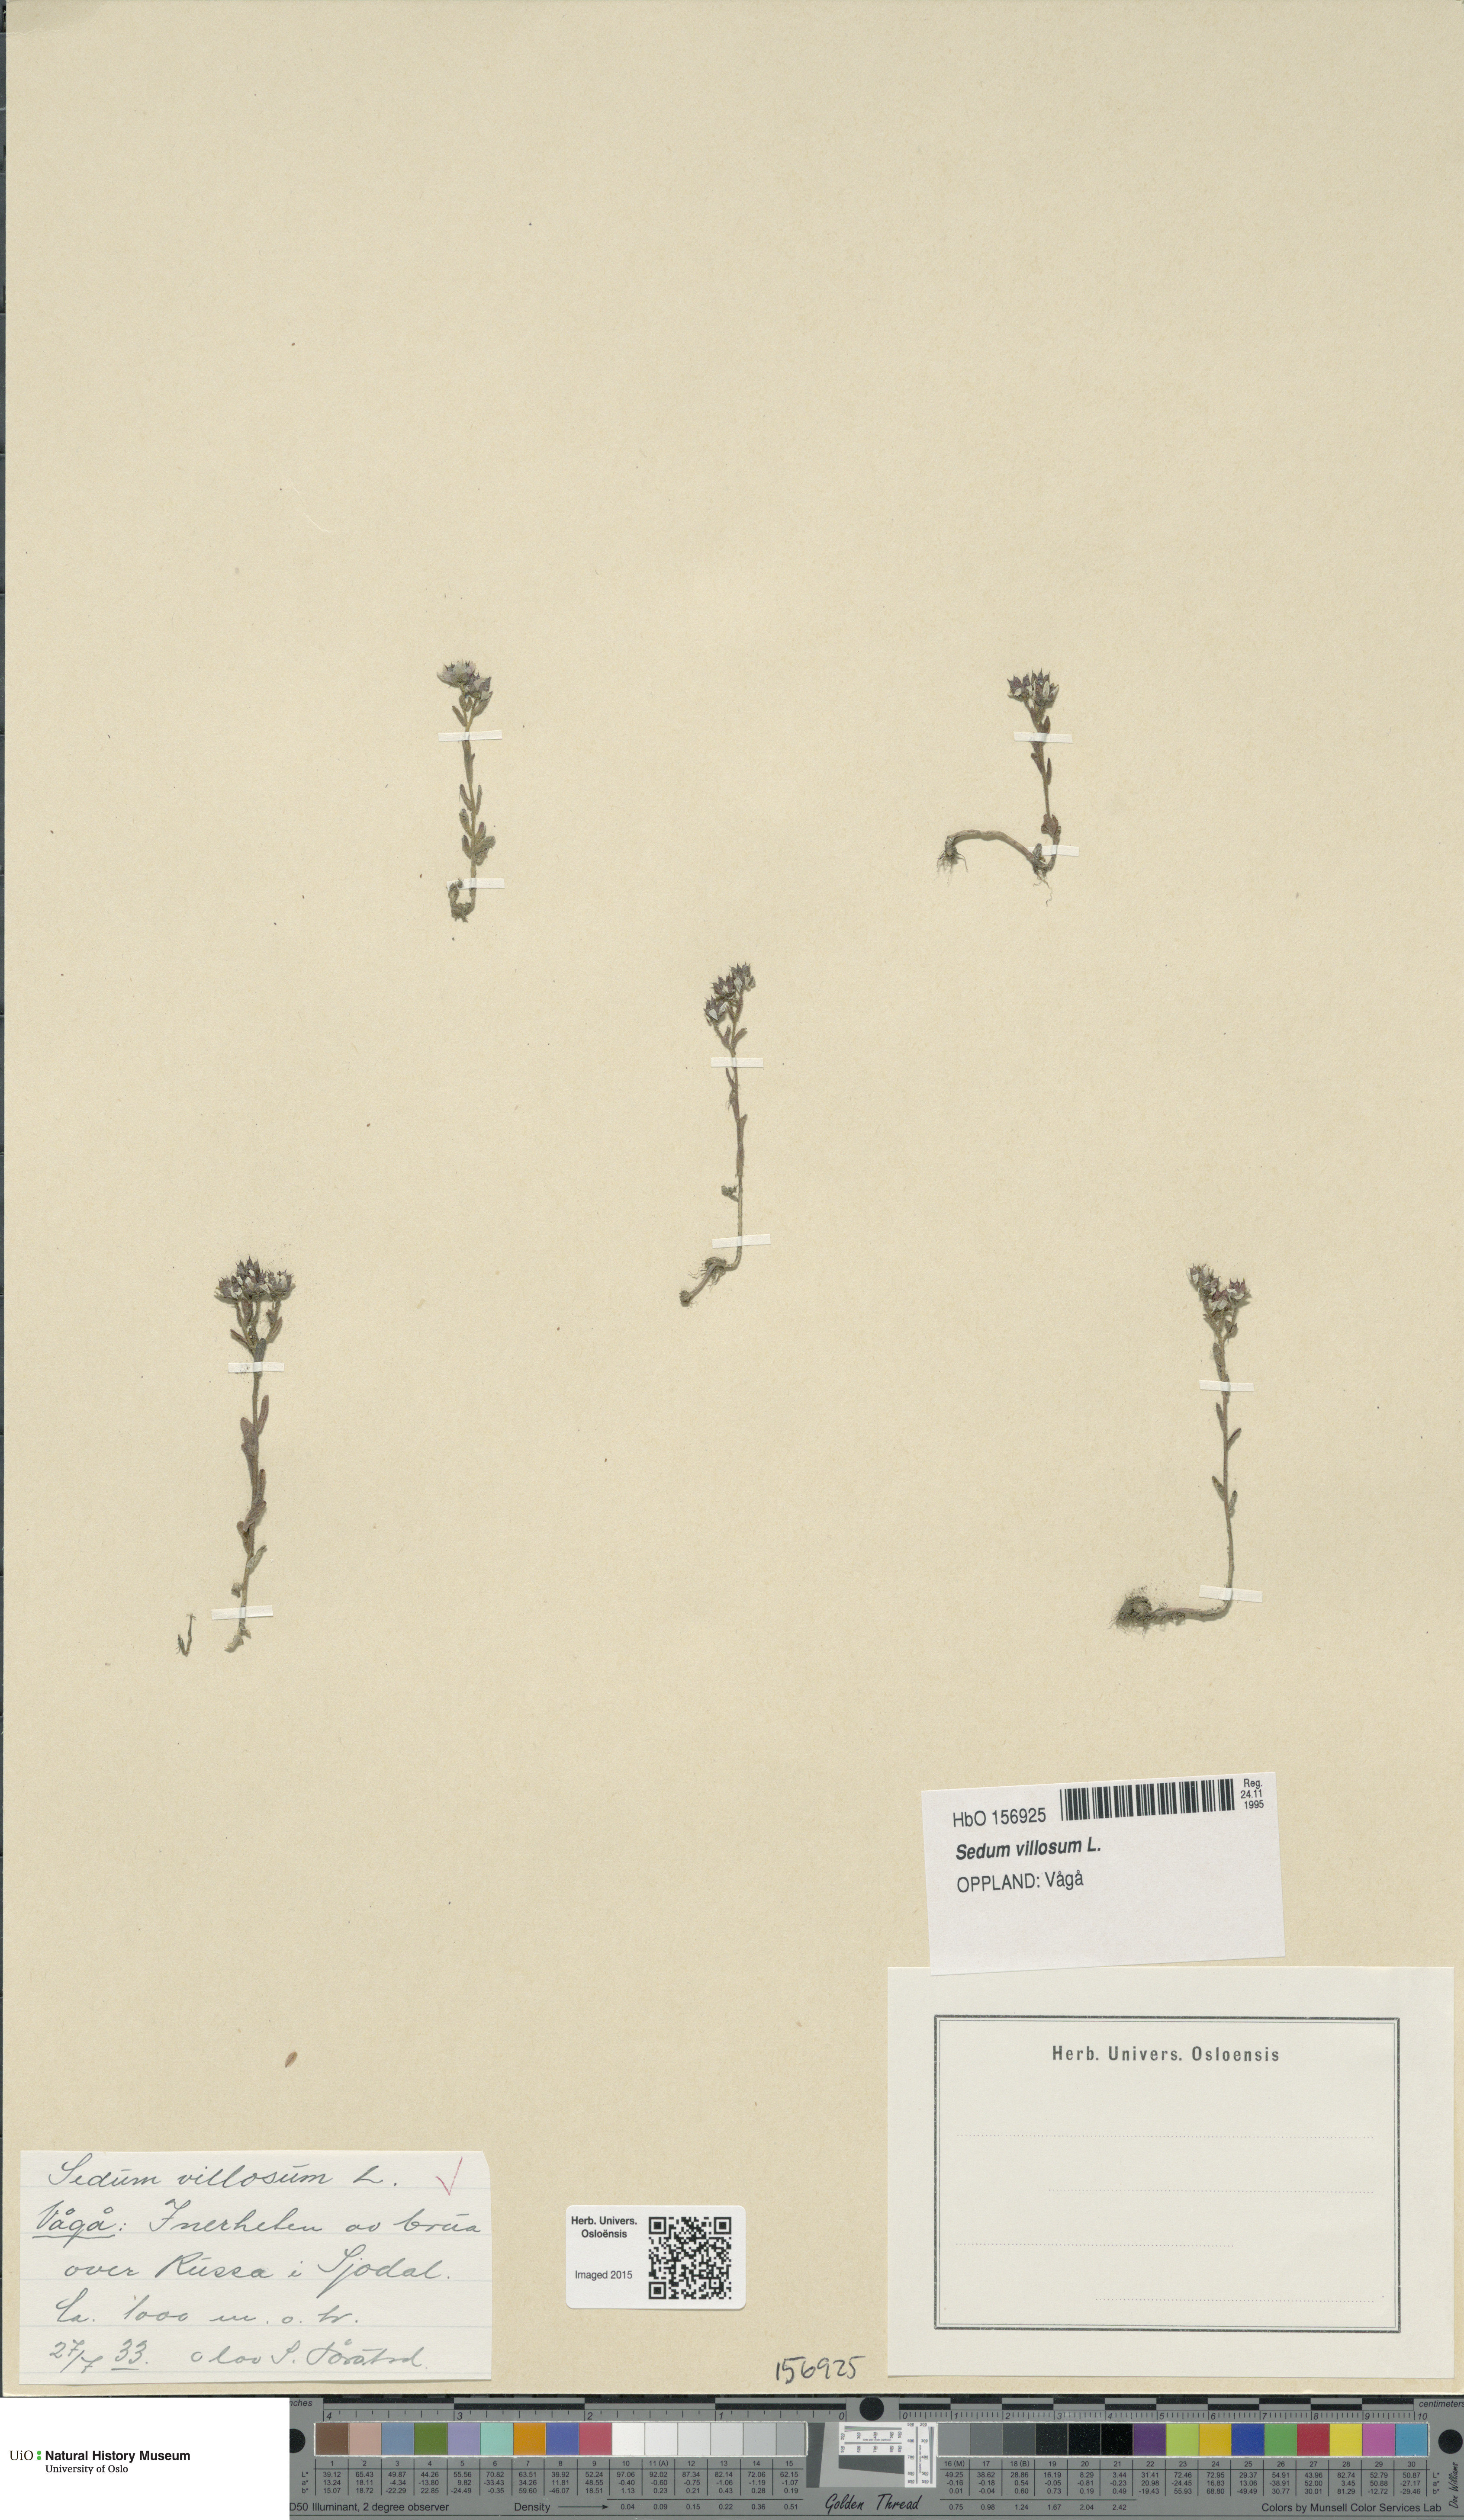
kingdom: Plantae
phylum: Tracheophyta
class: Magnoliopsida
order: Saxifragales
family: Crassulaceae
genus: Sedum
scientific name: Sedum villosum
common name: Hairy stonecrop
